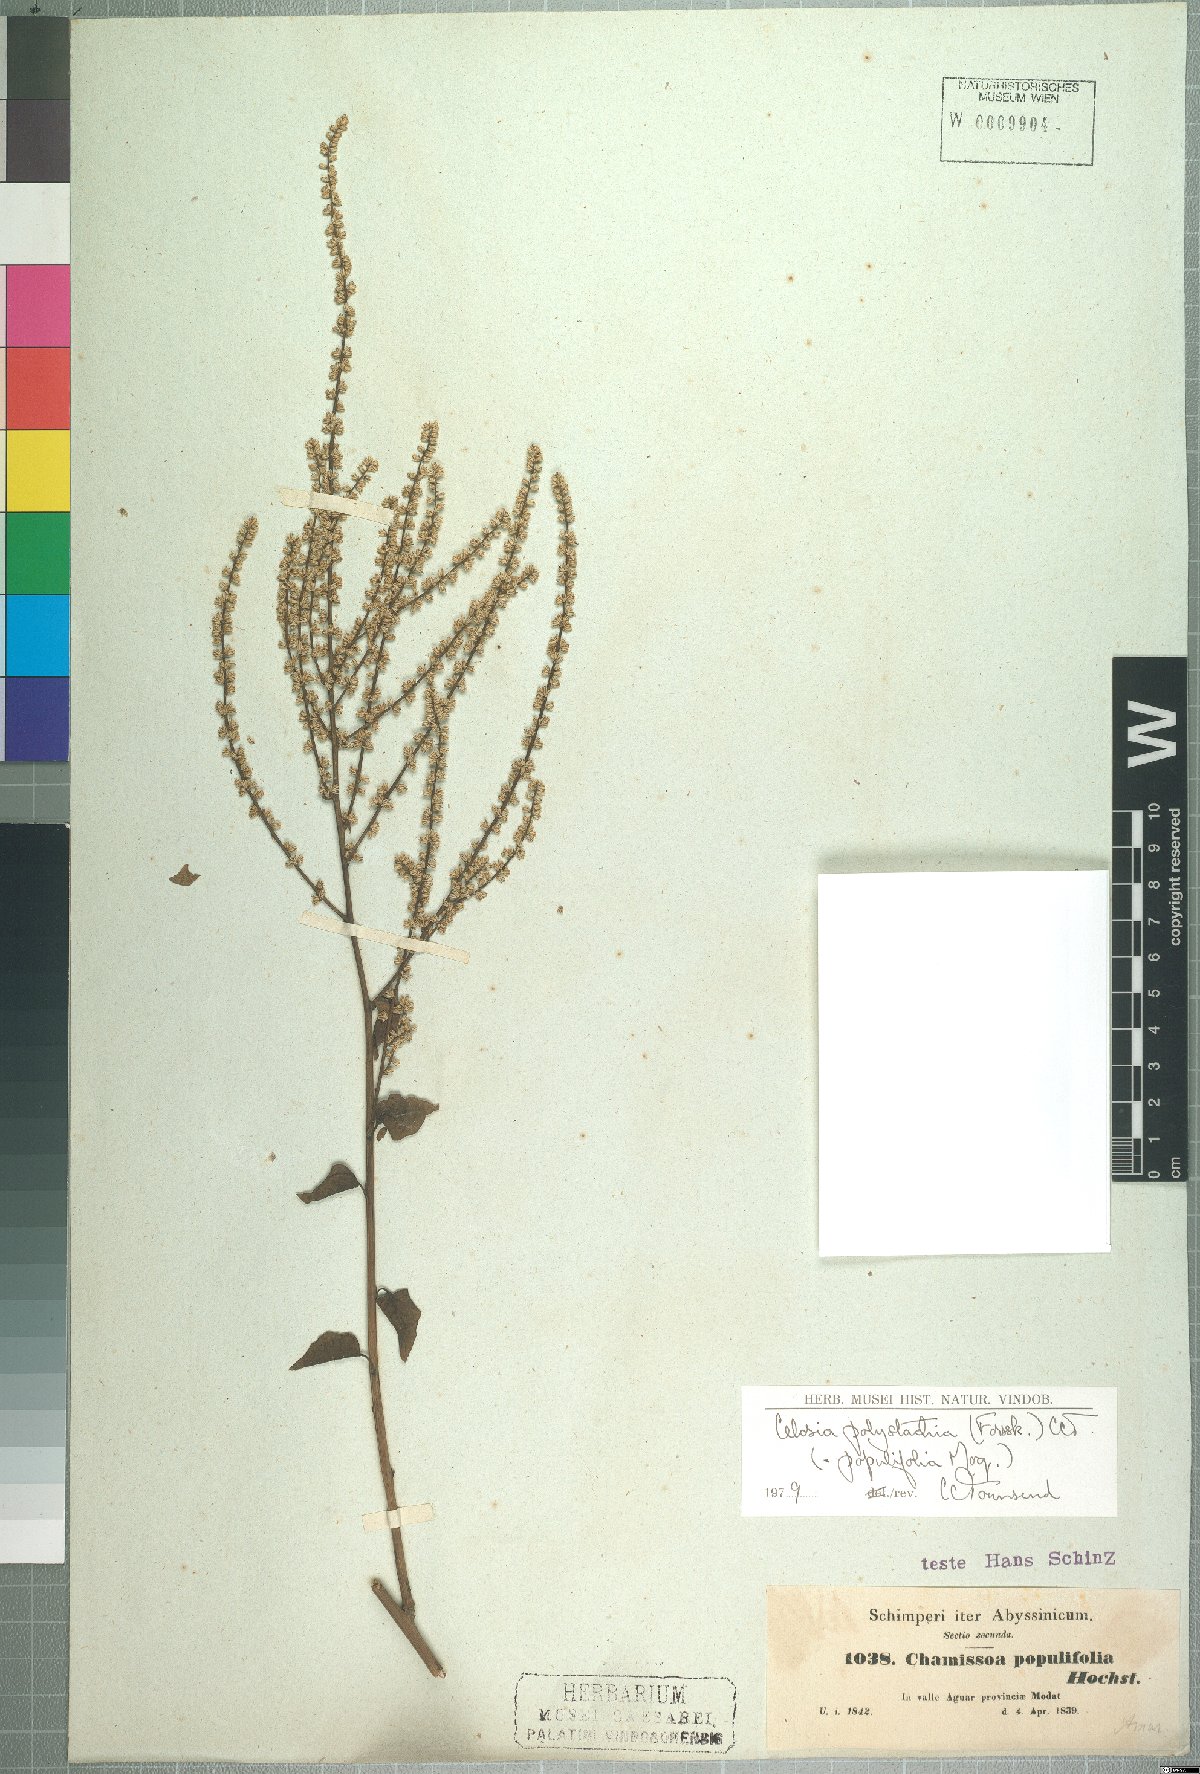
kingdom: Plantae
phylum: Tracheophyta
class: Magnoliopsida
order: Caryophyllales
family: Amaranthaceae
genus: Celosia
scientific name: Celosia polystachya
